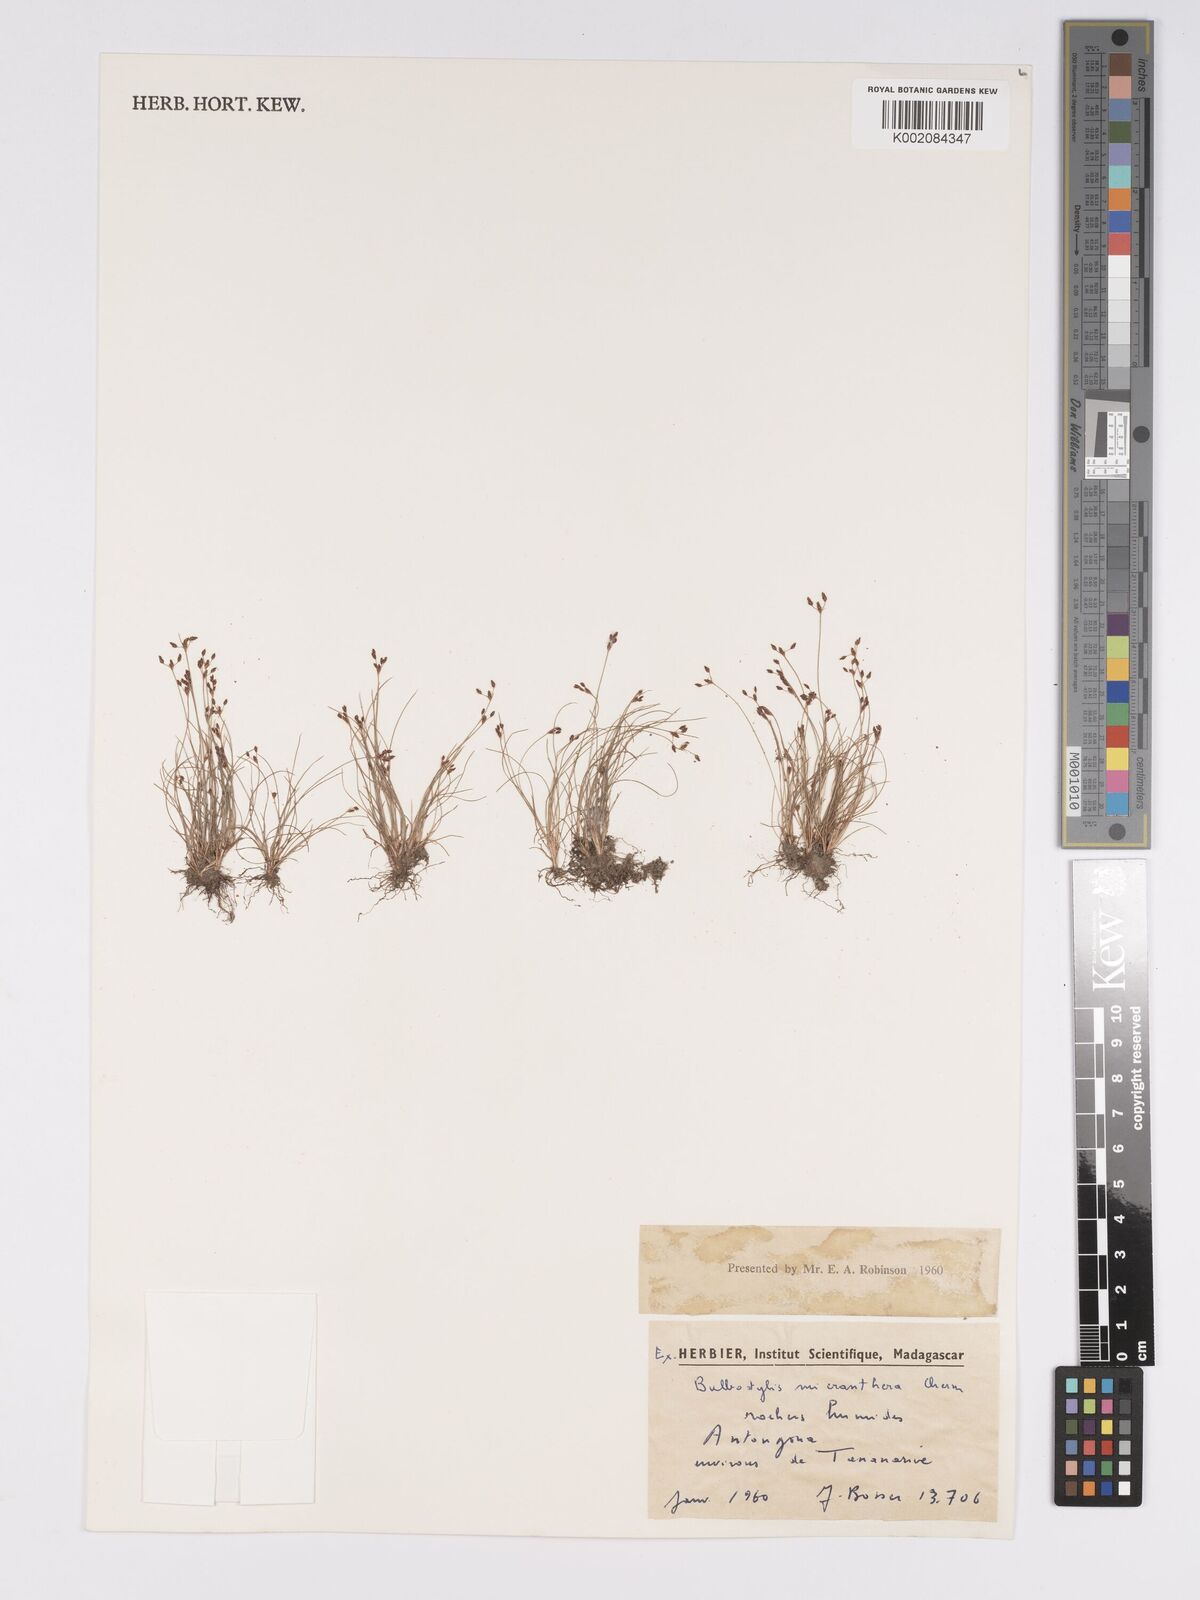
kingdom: Plantae
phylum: Tracheophyta
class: Liliopsida
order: Poales
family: Cyperaceae
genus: Bulbostylis
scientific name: Bulbostylis micranthera
